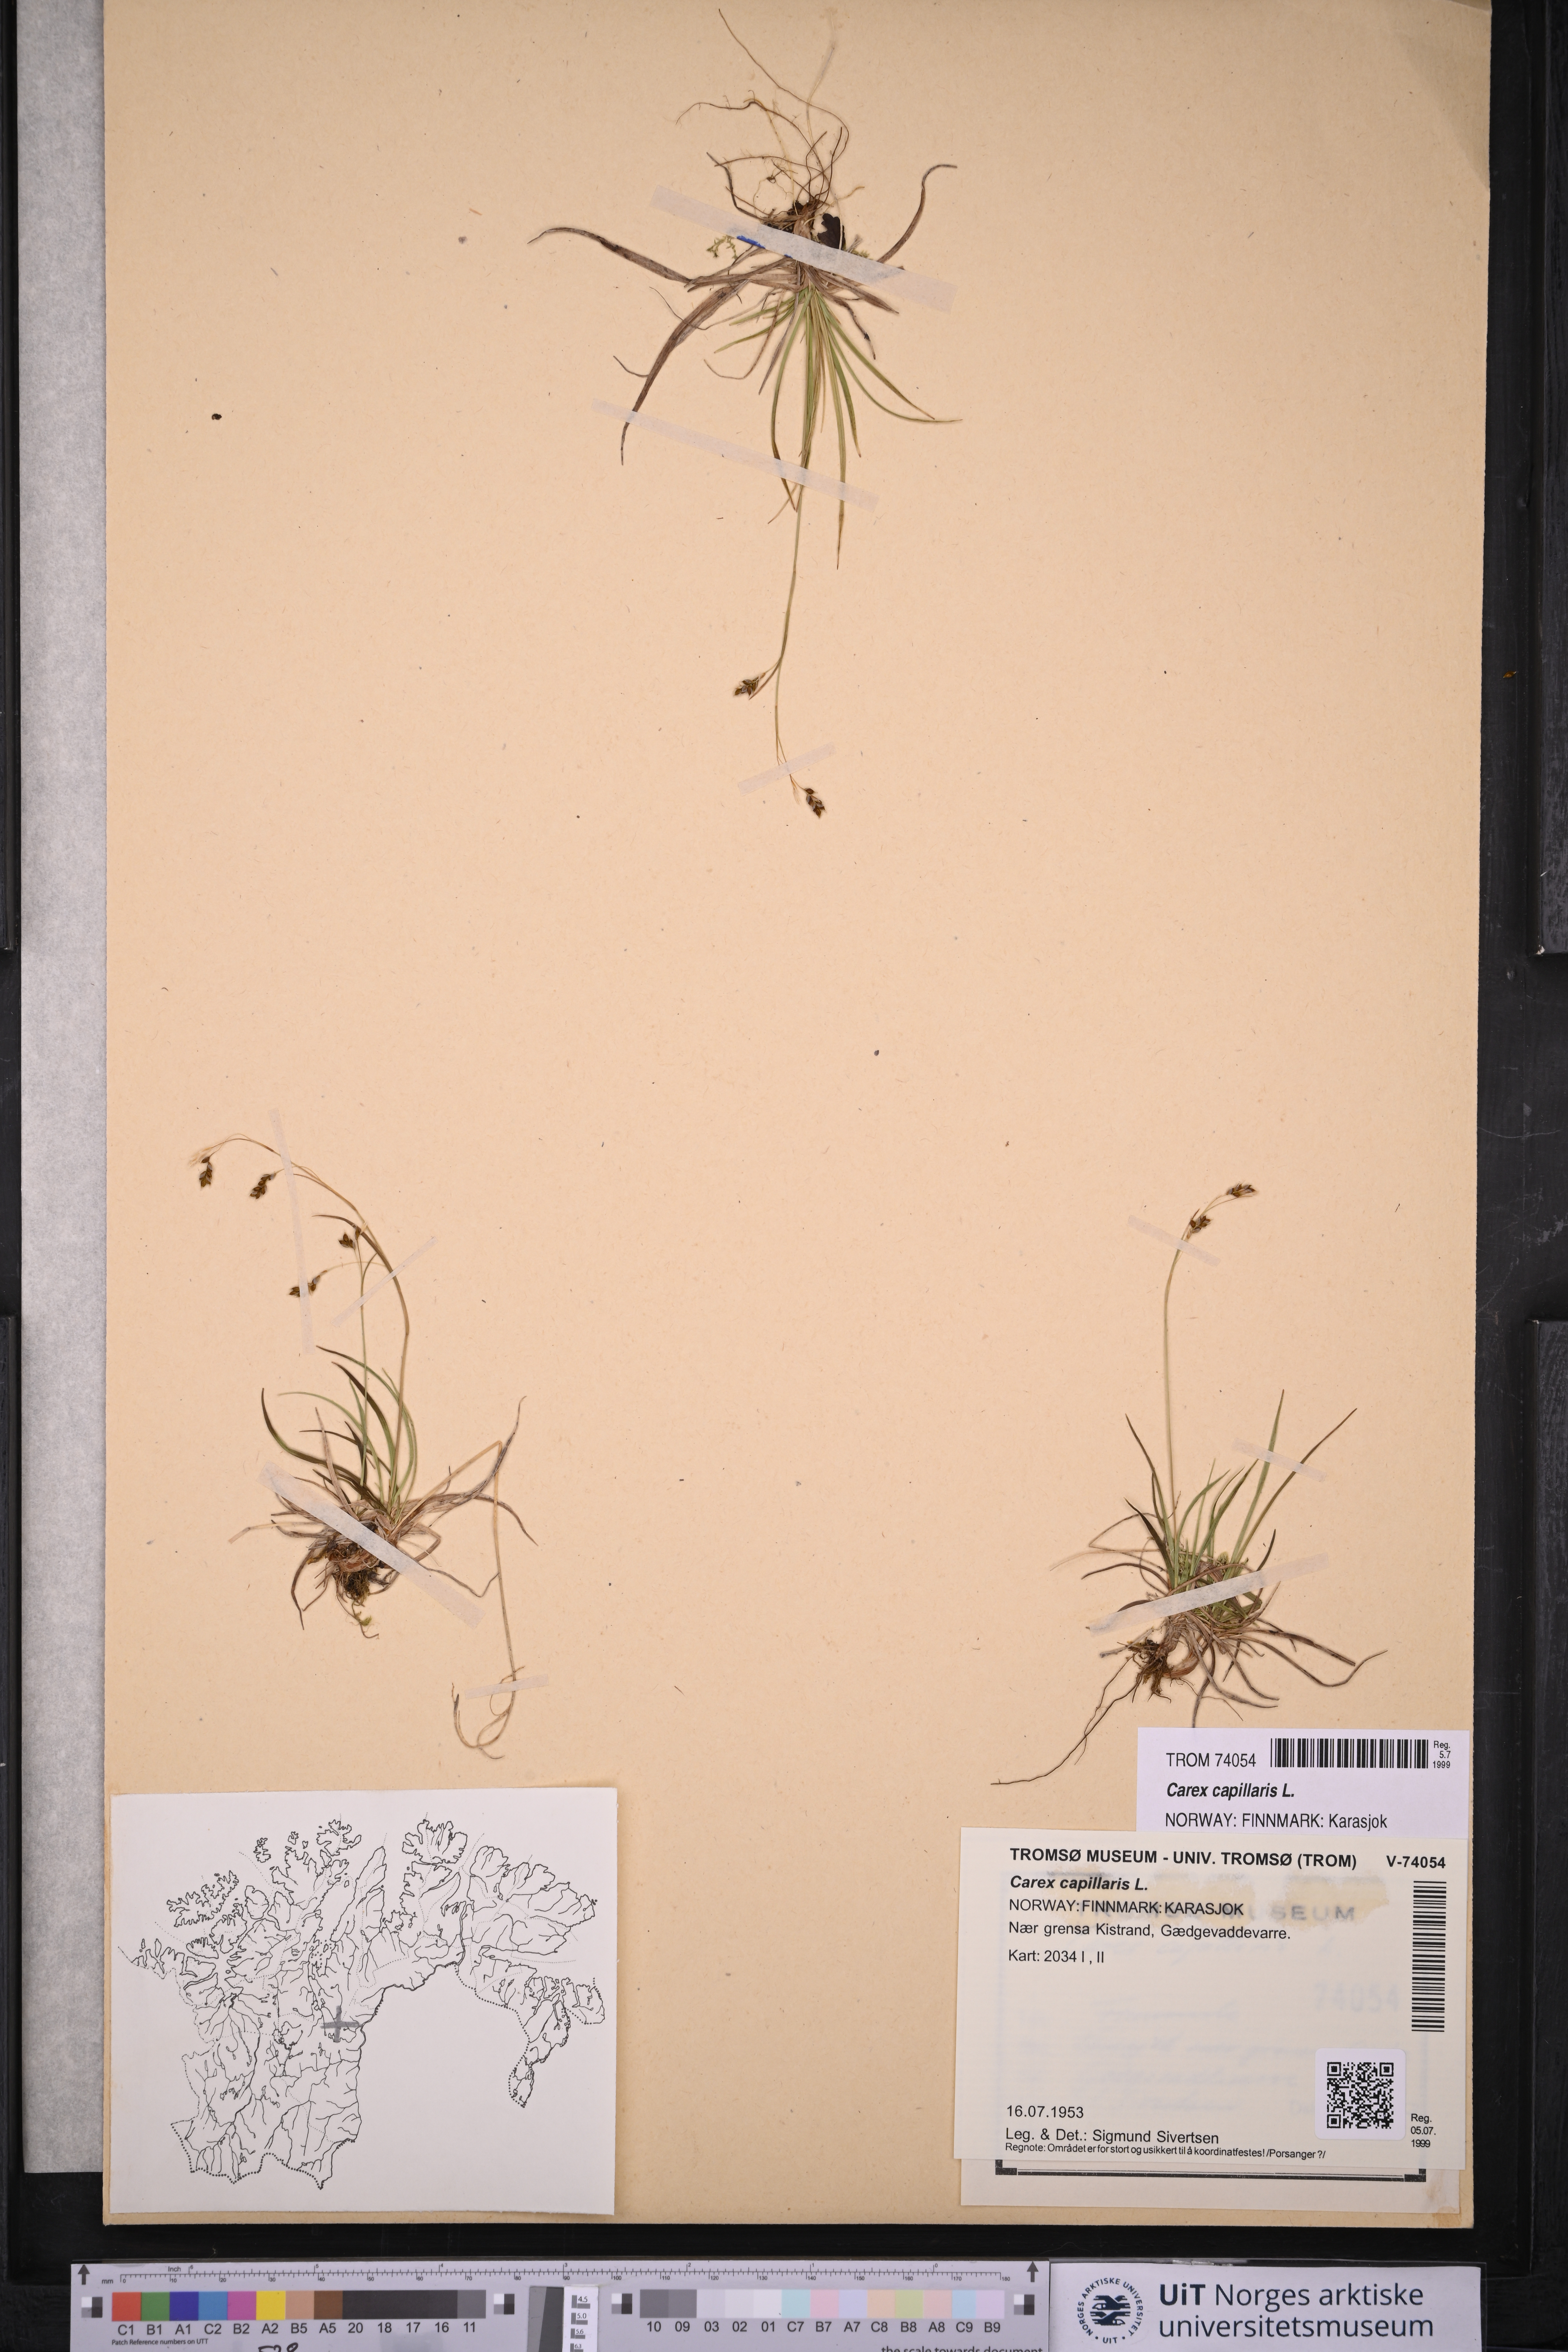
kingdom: Plantae
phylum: Tracheophyta
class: Liliopsida
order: Poales
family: Cyperaceae
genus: Carex
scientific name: Carex capillaris
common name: Hair sedge
